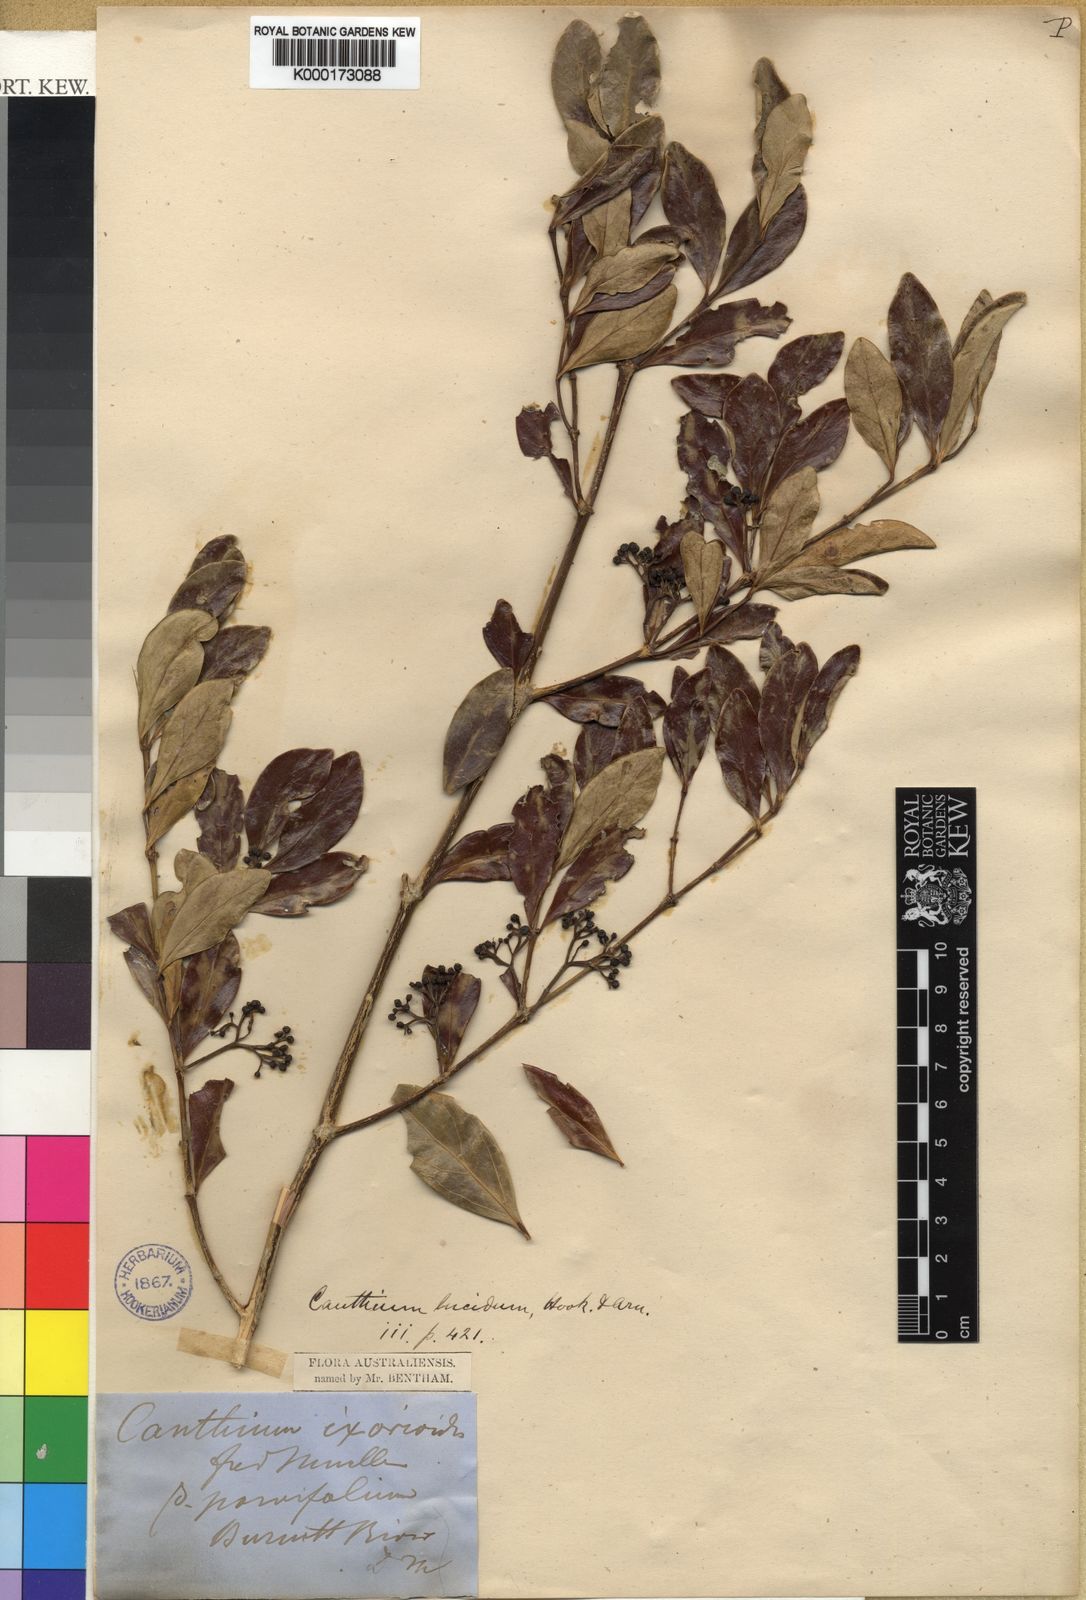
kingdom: Plantae
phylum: Tracheophyta
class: Magnoliopsida
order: Gentianales
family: Rubiaceae
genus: Psydrax
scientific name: Psydrax odoratus
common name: Alahe'e
